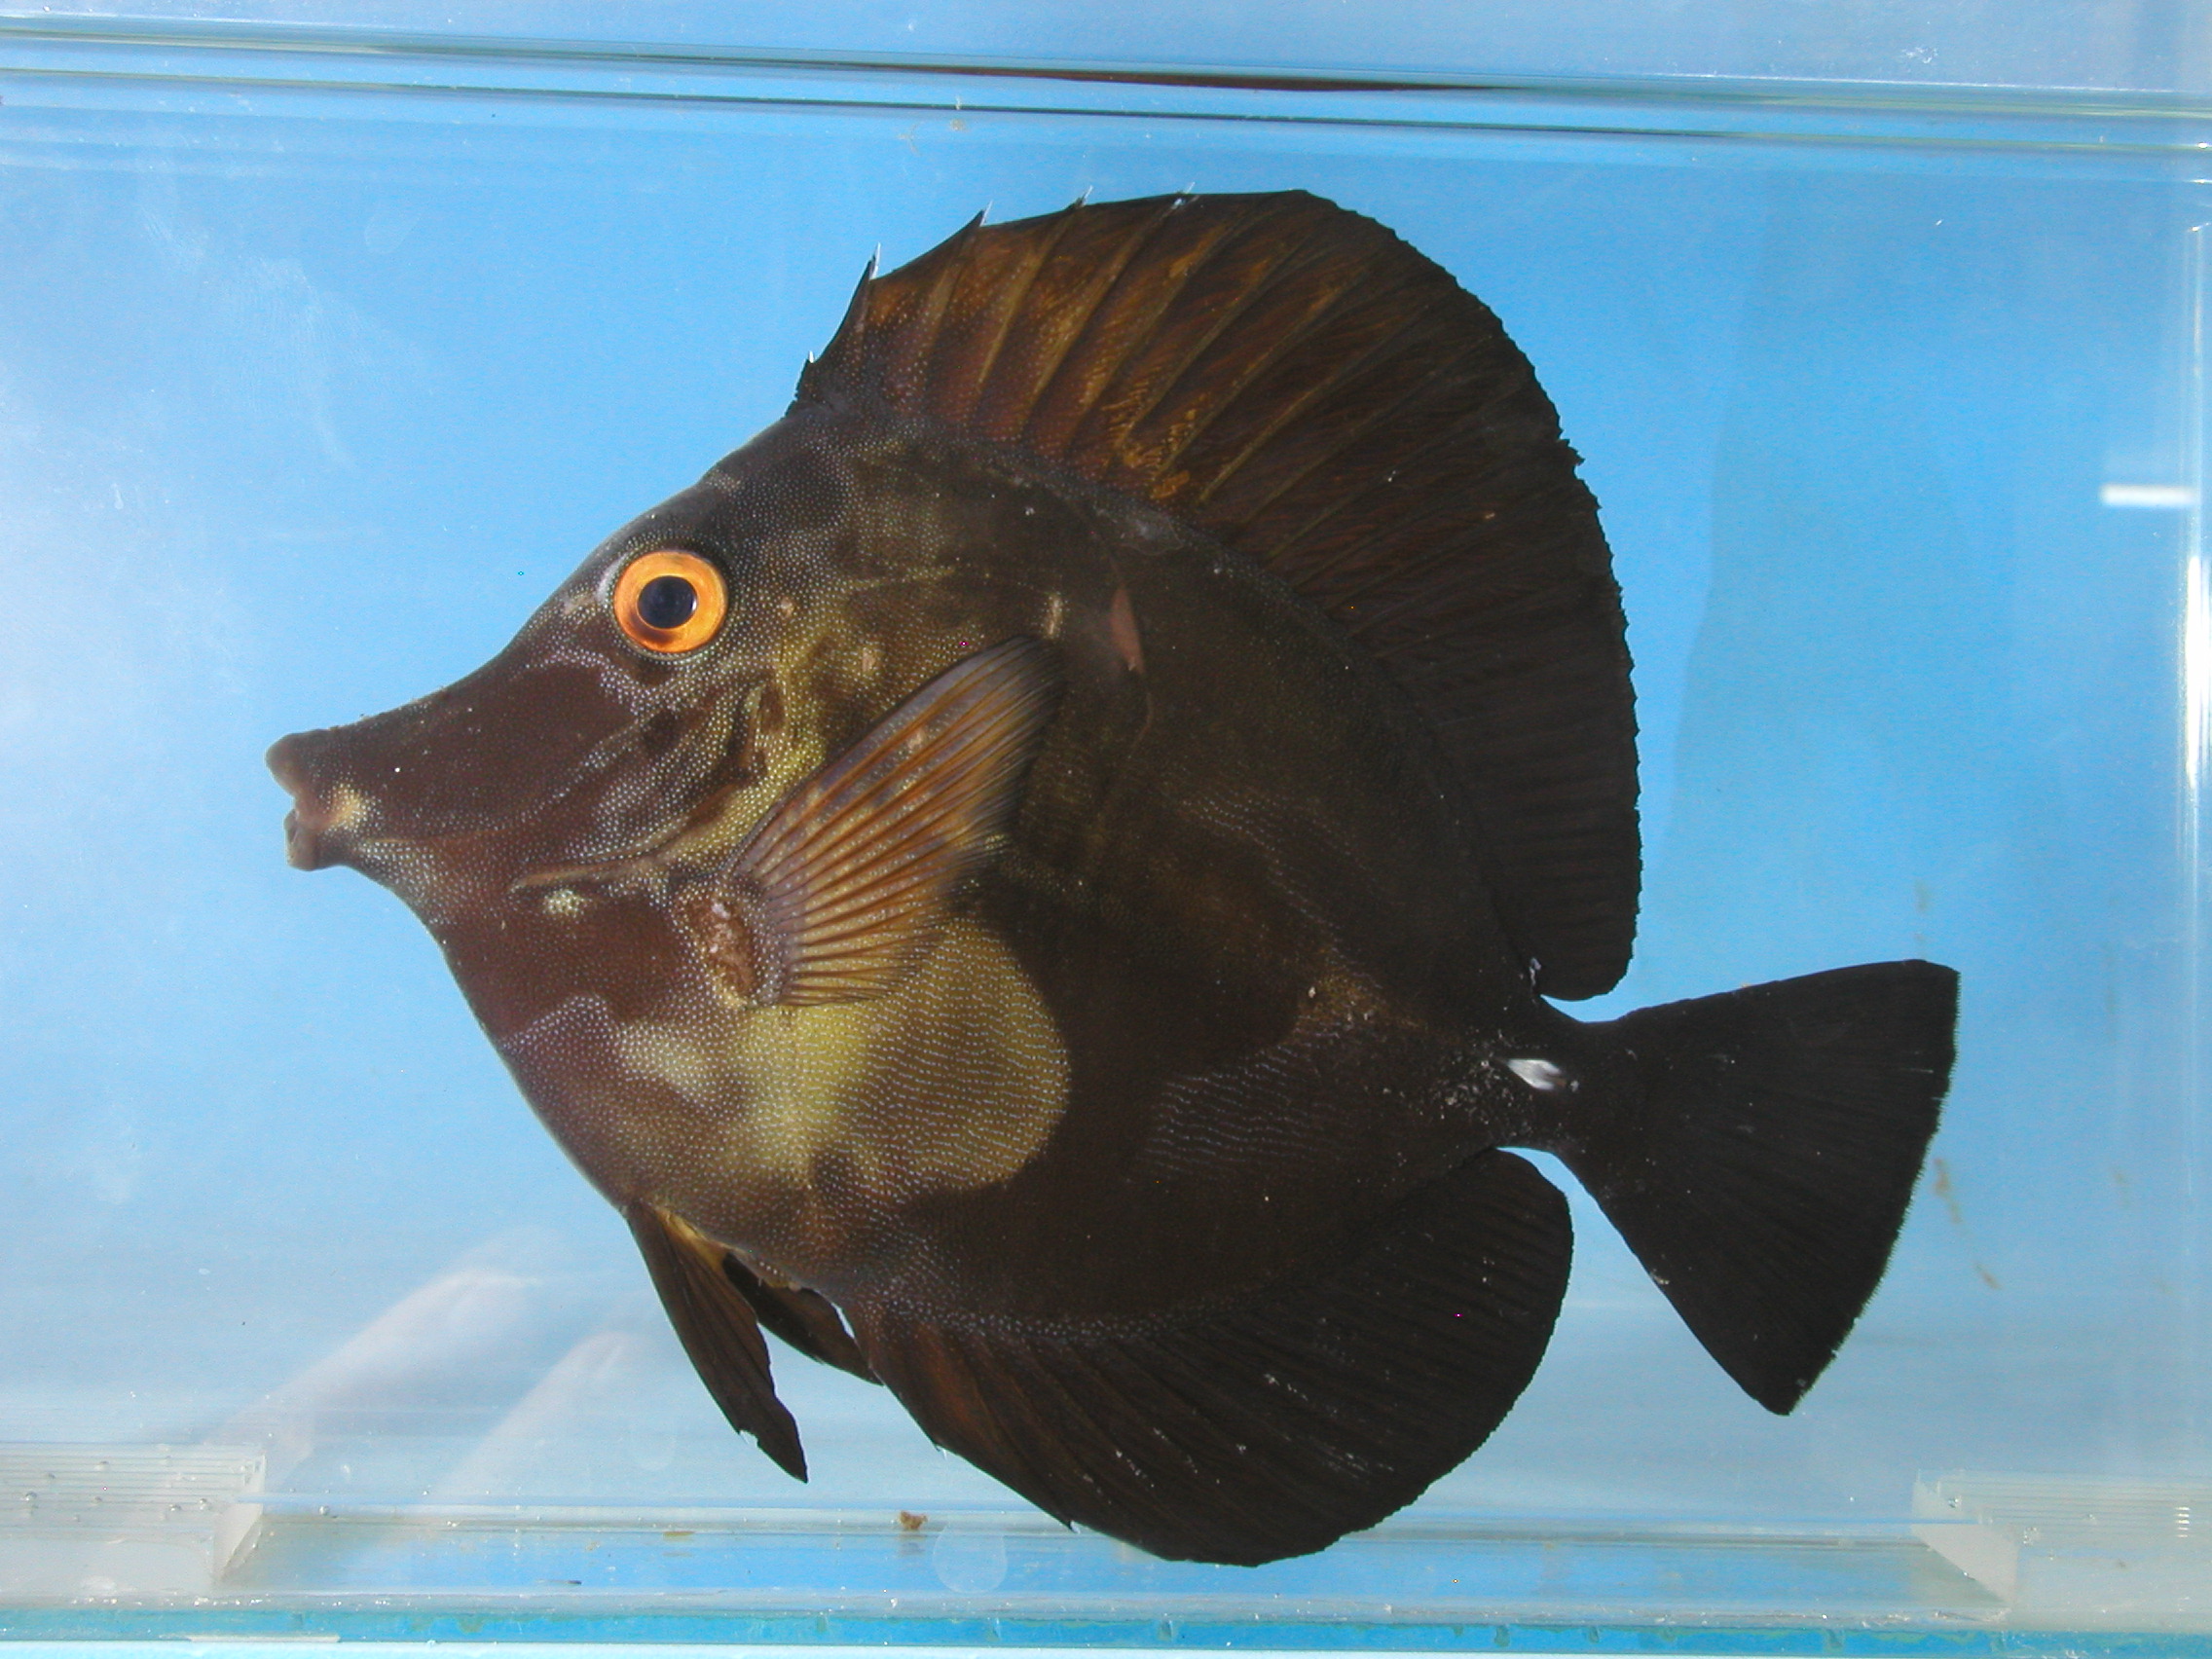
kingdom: Animalia
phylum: Chordata
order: Perciformes
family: Acanthuridae
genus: Zebrasoma
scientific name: Zebrasoma scopas
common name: Twotone tang
